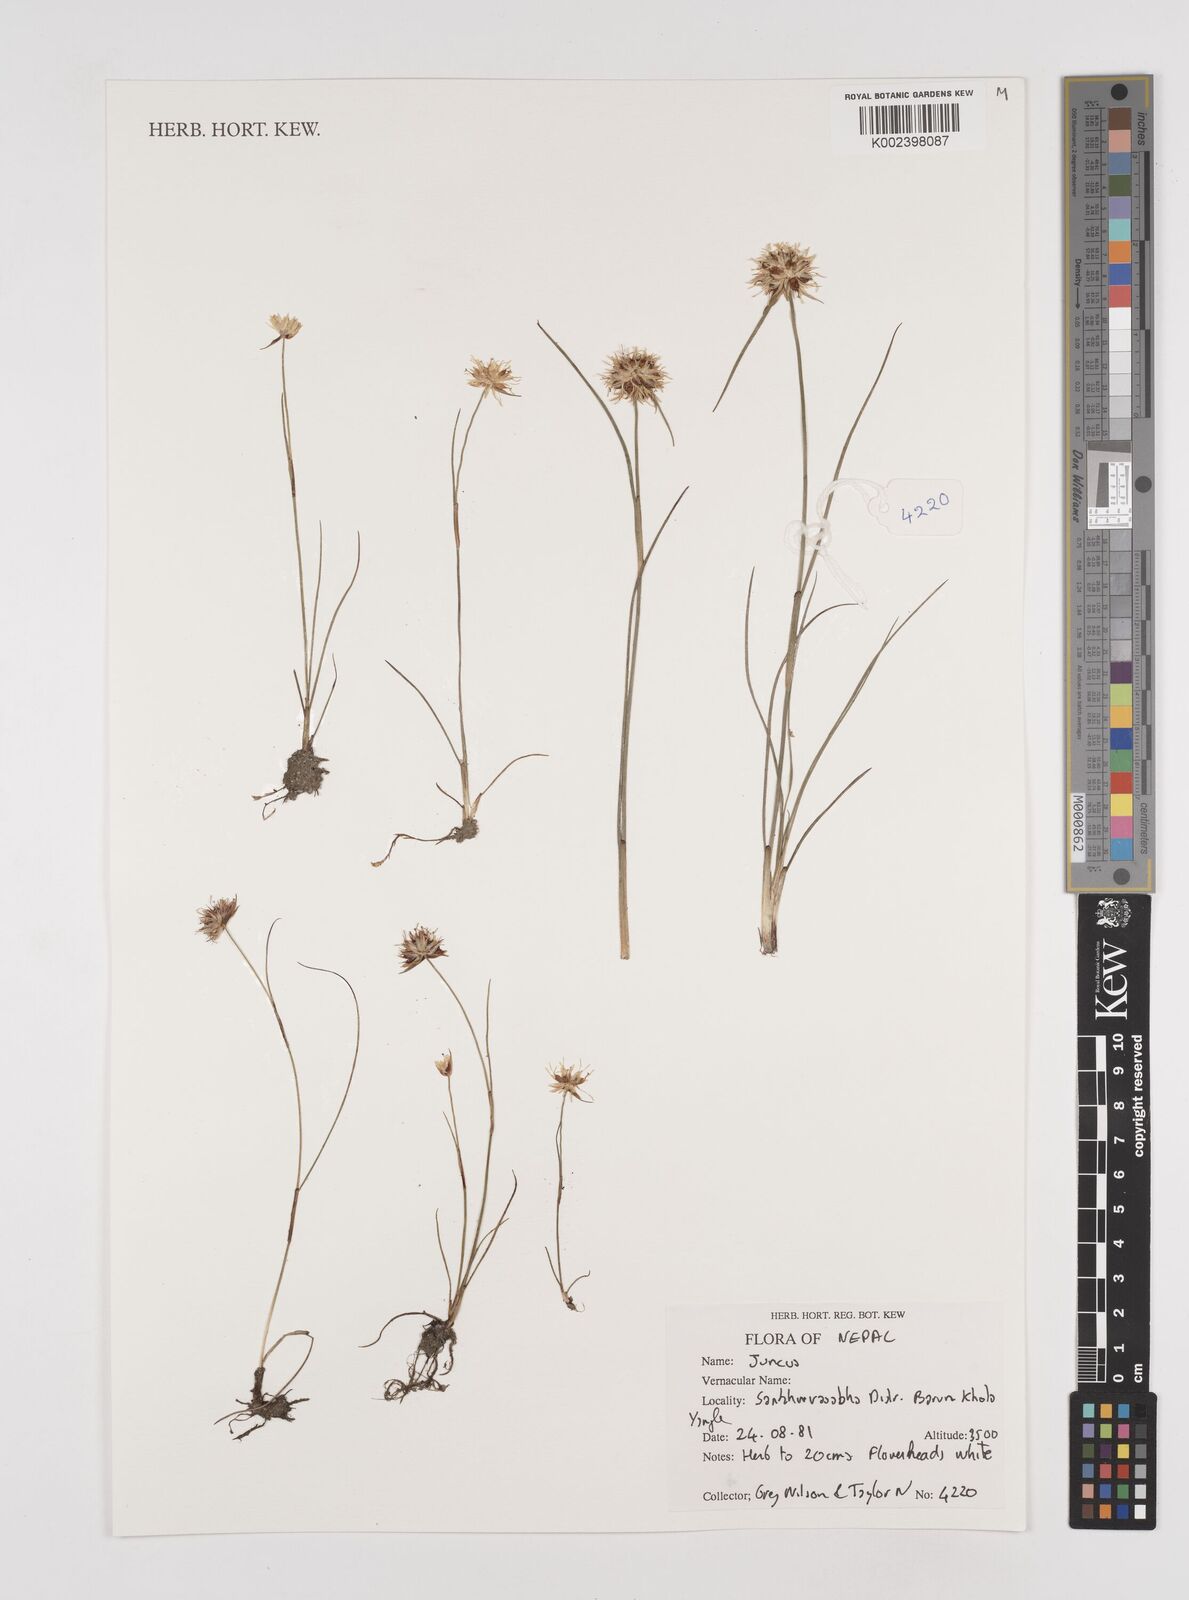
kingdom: Plantae
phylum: Tracheophyta
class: Liliopsida
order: Poales
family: Juncaceae
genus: Juncus
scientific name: Juncus
